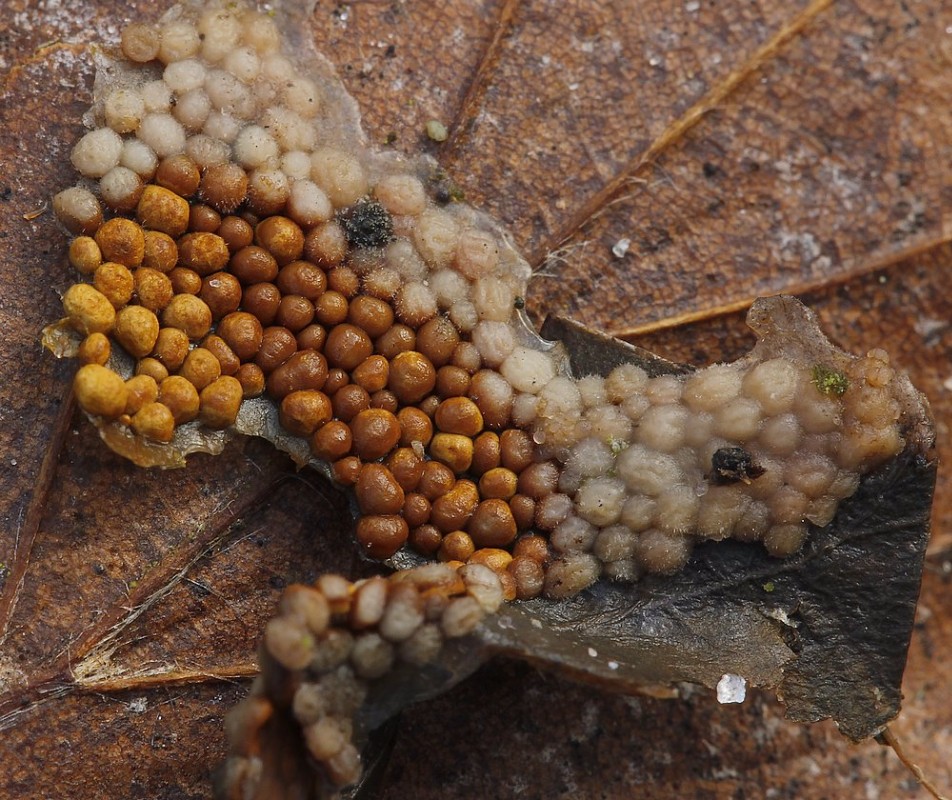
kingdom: Fungi
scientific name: Fungi
